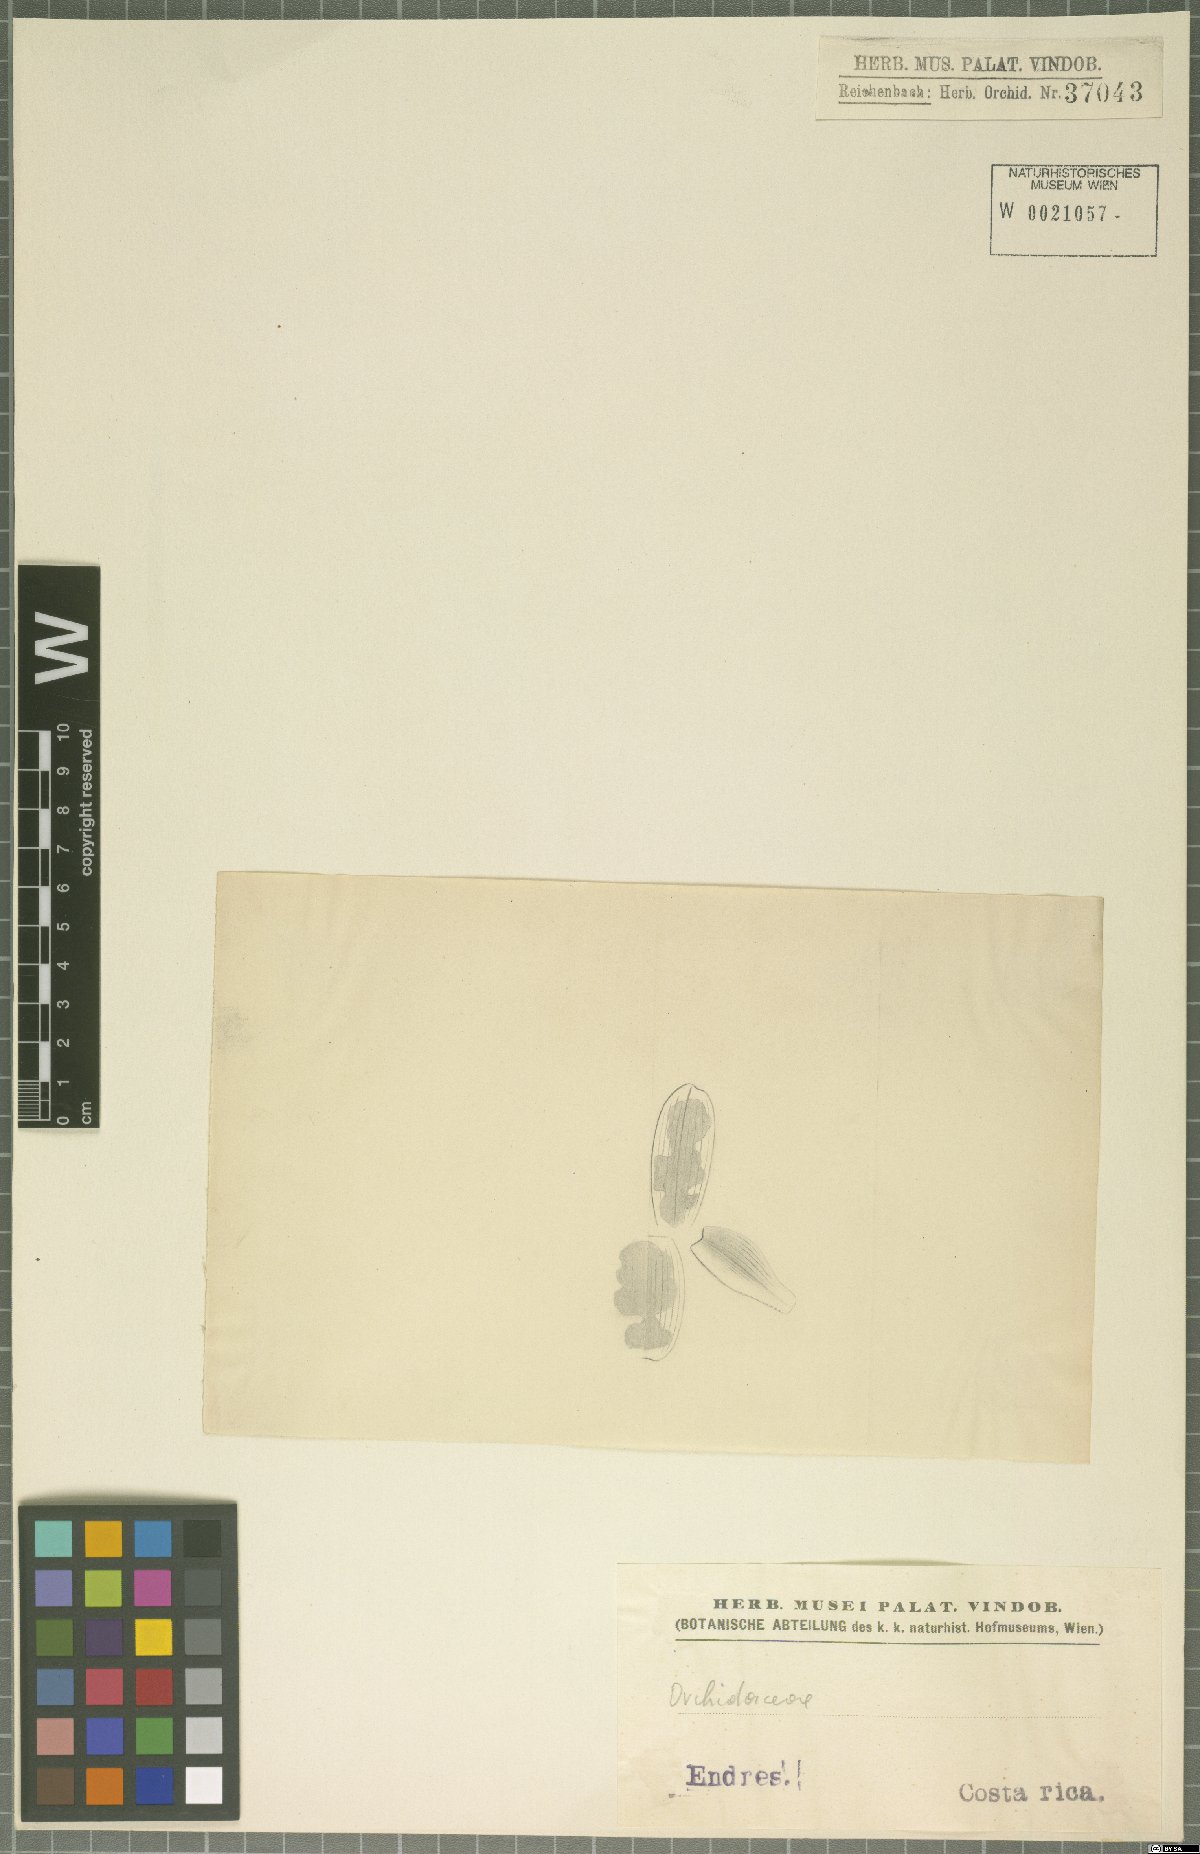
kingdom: Plantae
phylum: Tracheophyta
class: Liliopsida
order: Asparagales
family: Orchidaceae
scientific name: Orchidaceae
